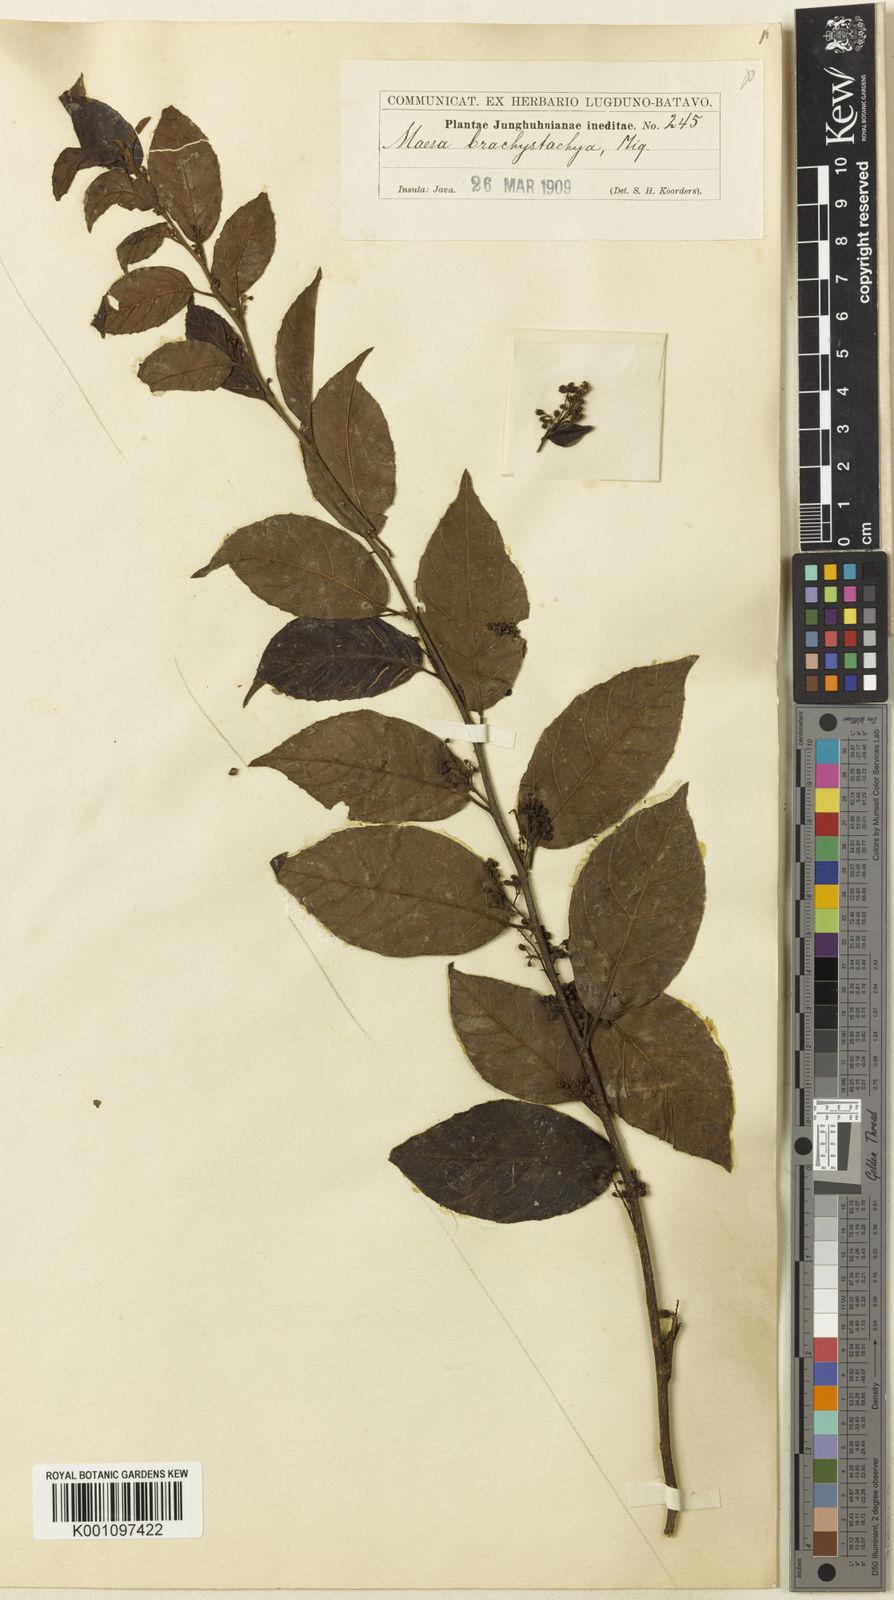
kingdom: Plantae
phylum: Tracheophyta
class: Magnoliopsida
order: Ericales
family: Primulaceae
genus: Maesa
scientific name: Maesa
